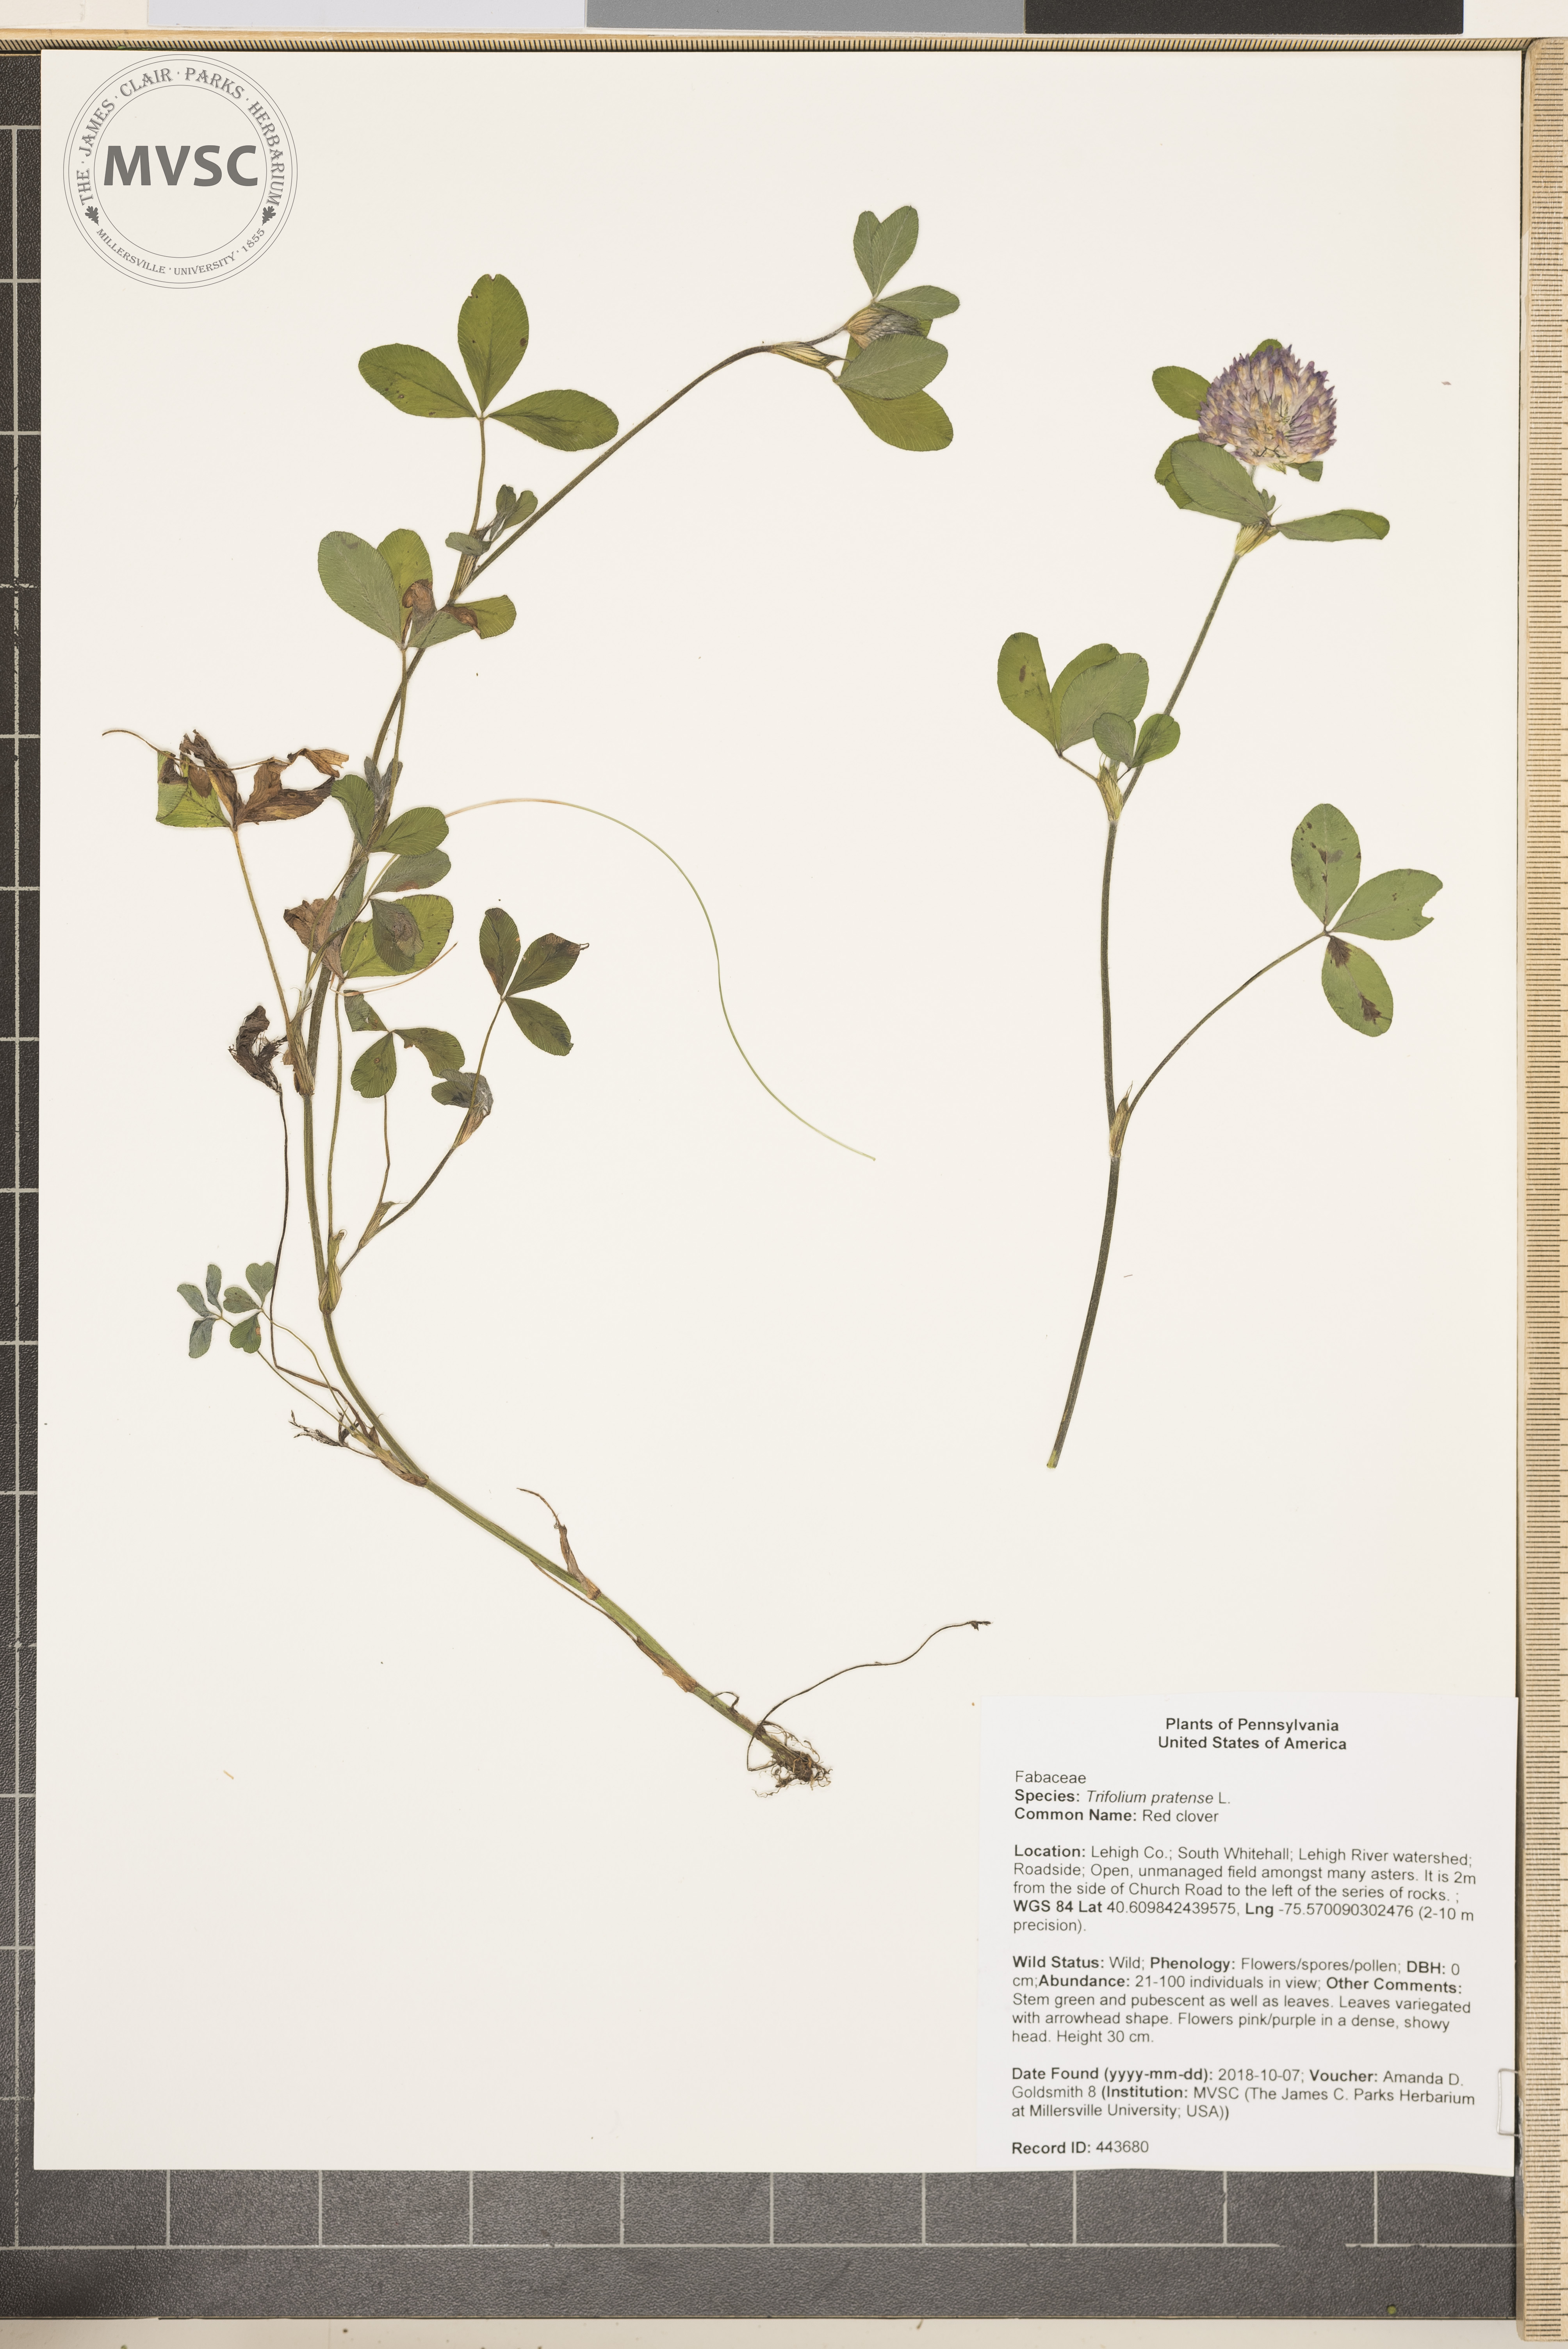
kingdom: Plantae
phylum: Tracheophyta
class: Magnoliopsida
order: Fabales
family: Fabaceae
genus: Trifolium
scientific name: Trifolium pratense
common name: Red clover
